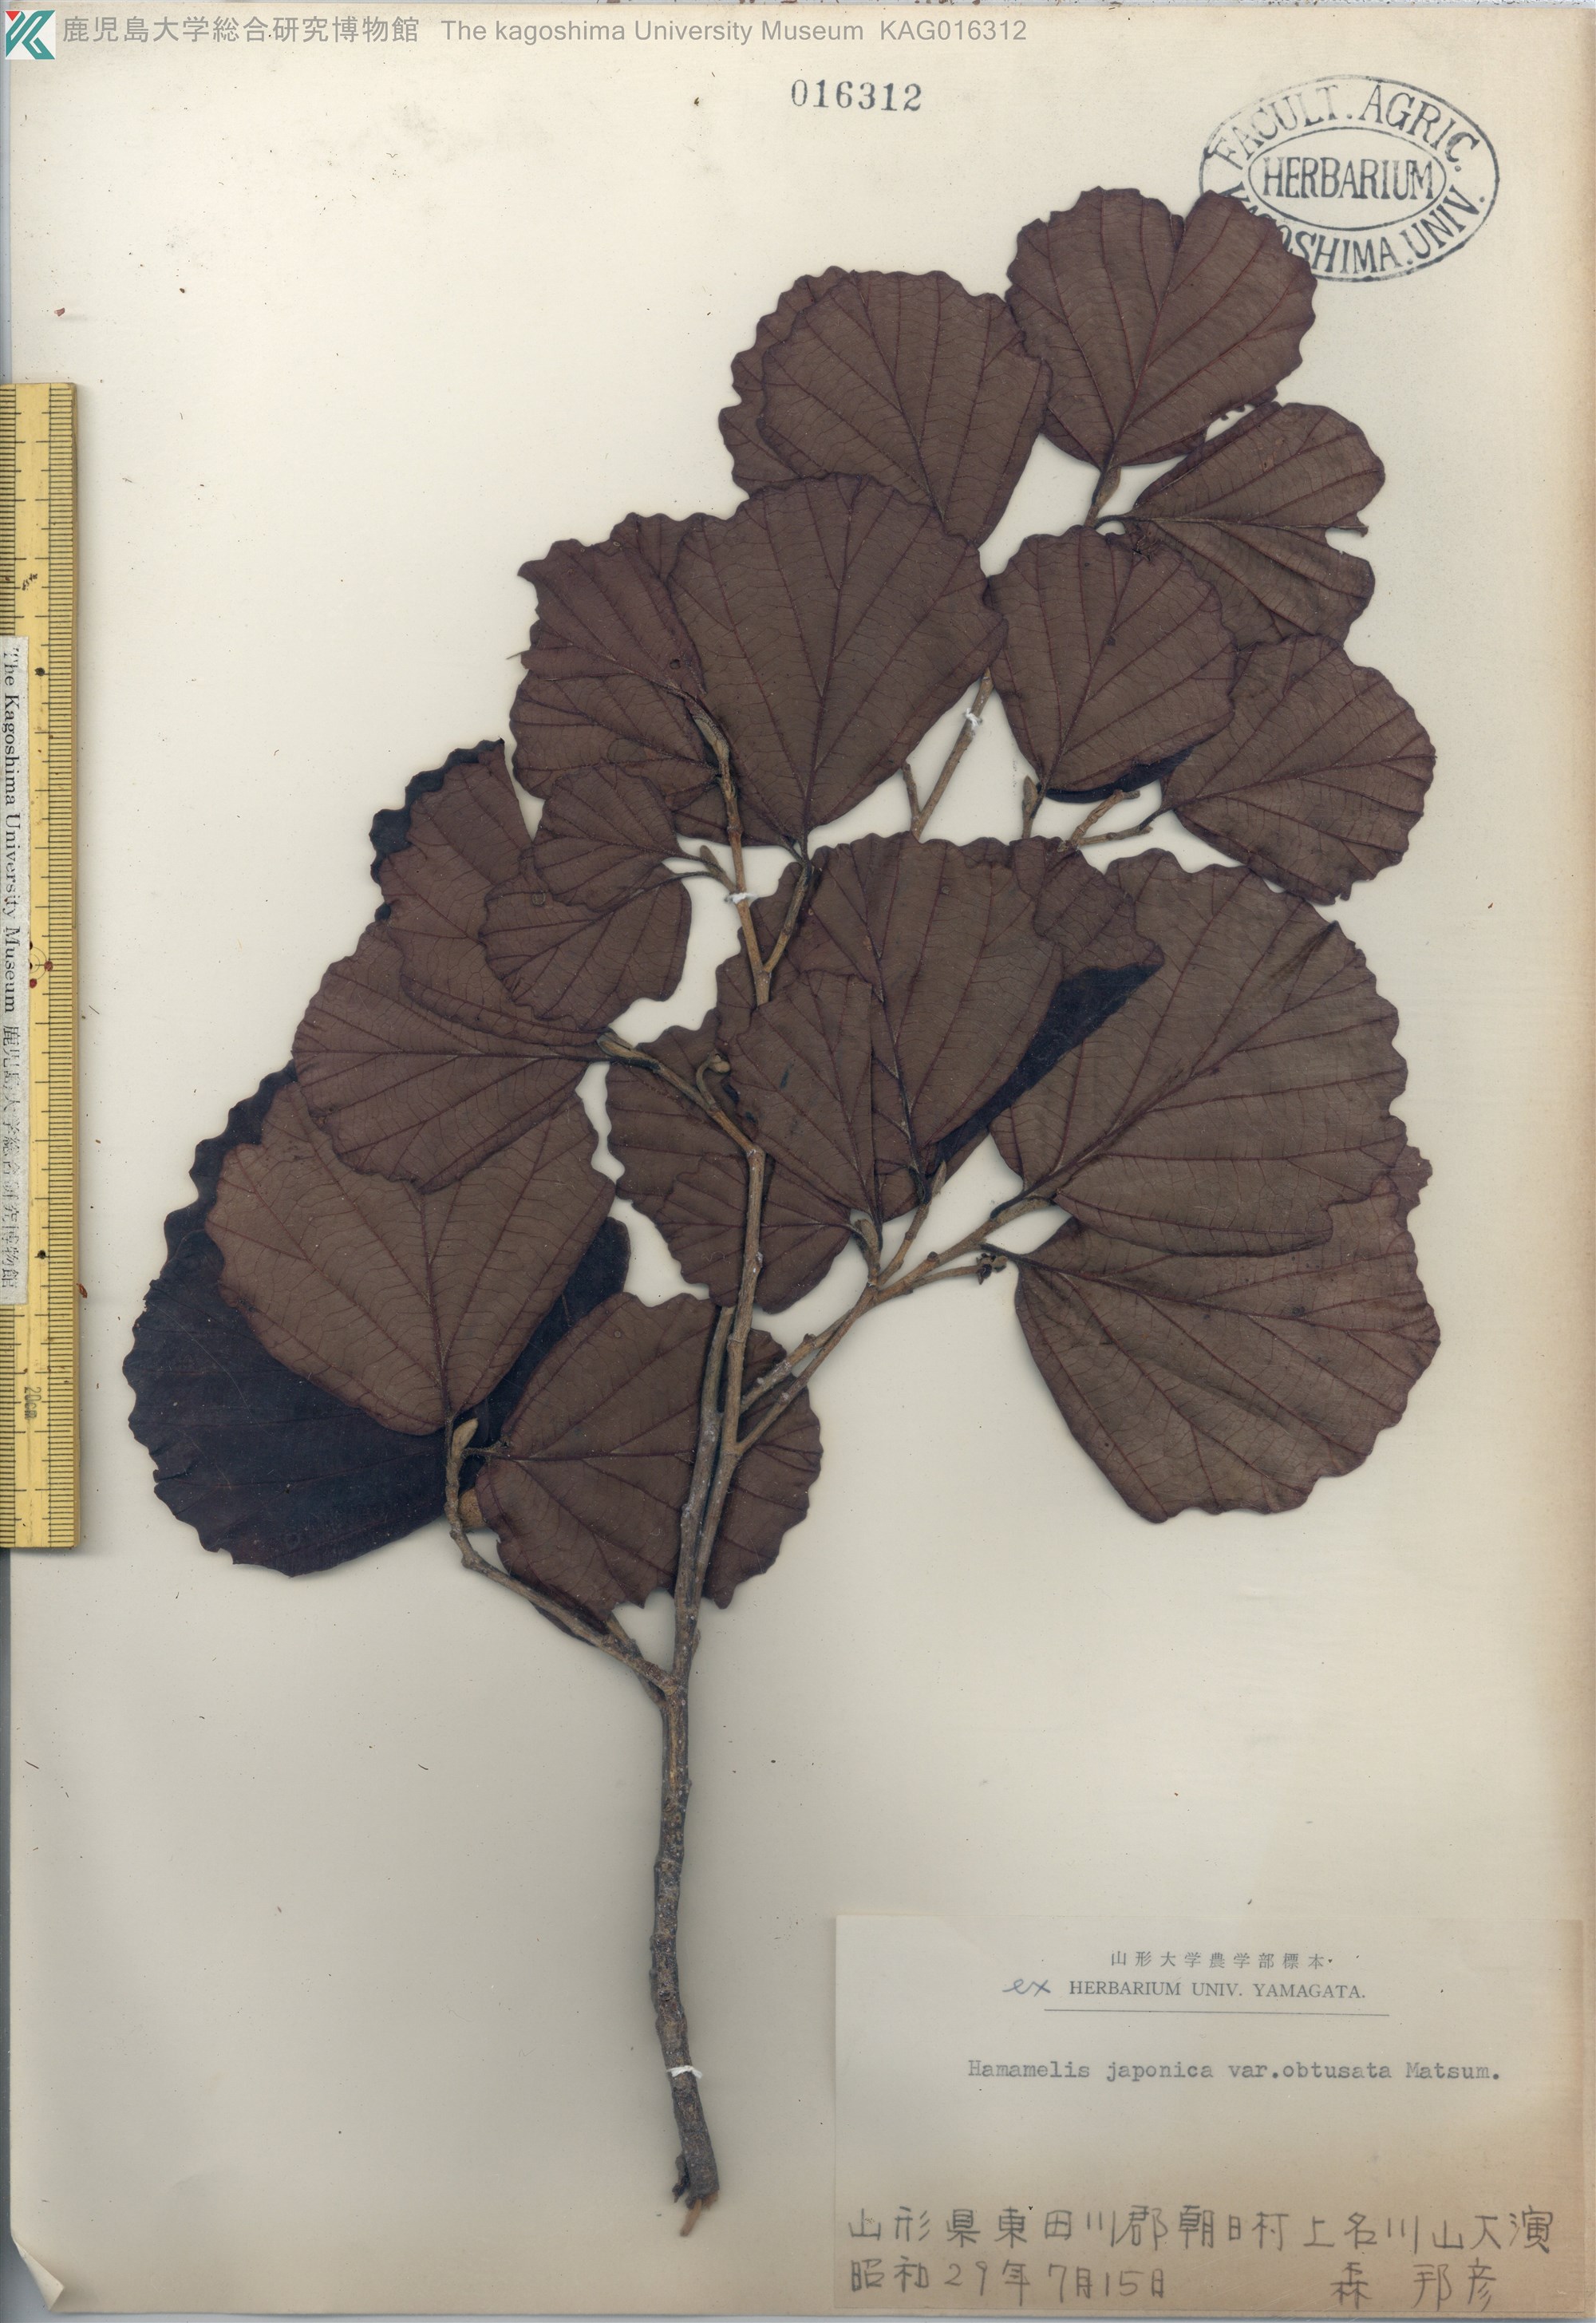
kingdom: Plantae
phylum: Tracheophyta
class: Magnoliopsida
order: Saxifragales
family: Hamamelidaceae
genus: Hamamelis
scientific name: Hamamelis japonica
